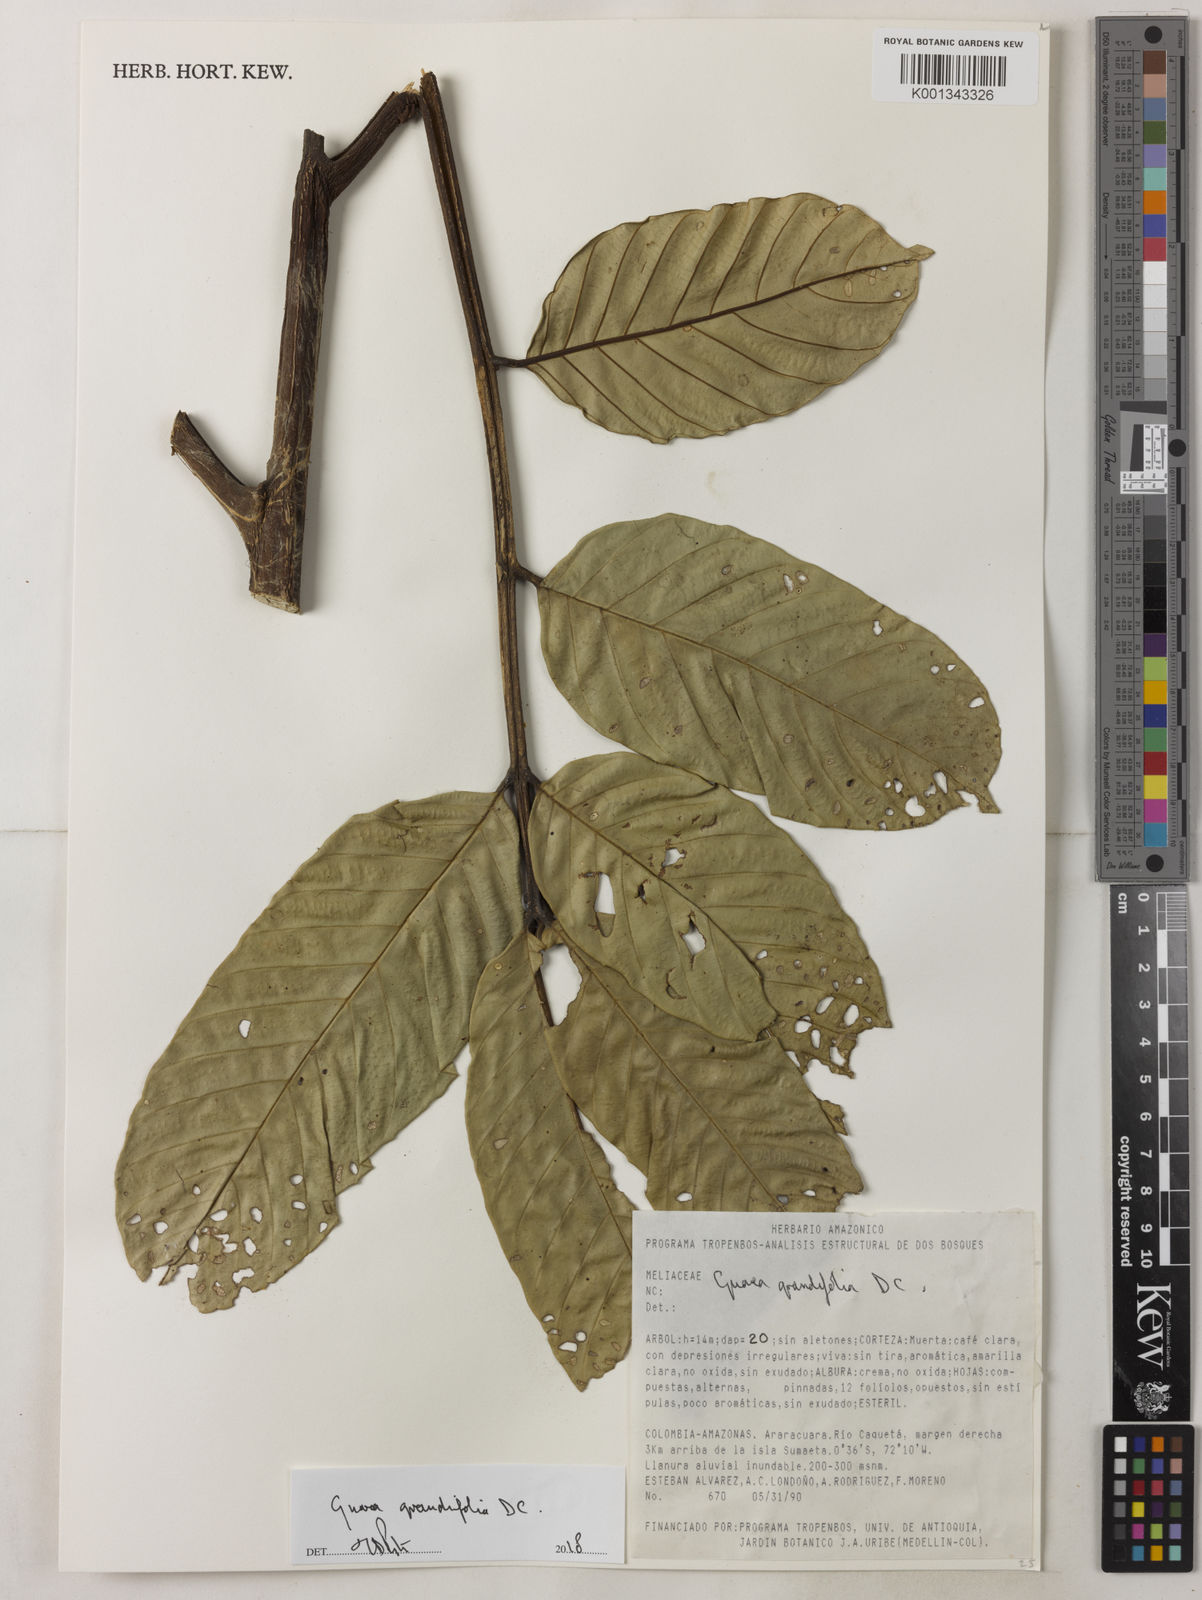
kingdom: Plantae
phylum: Tracheophyta
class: Magnoliopsida
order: Sapindales
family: Meliaceae
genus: Guarea
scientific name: Guarea
